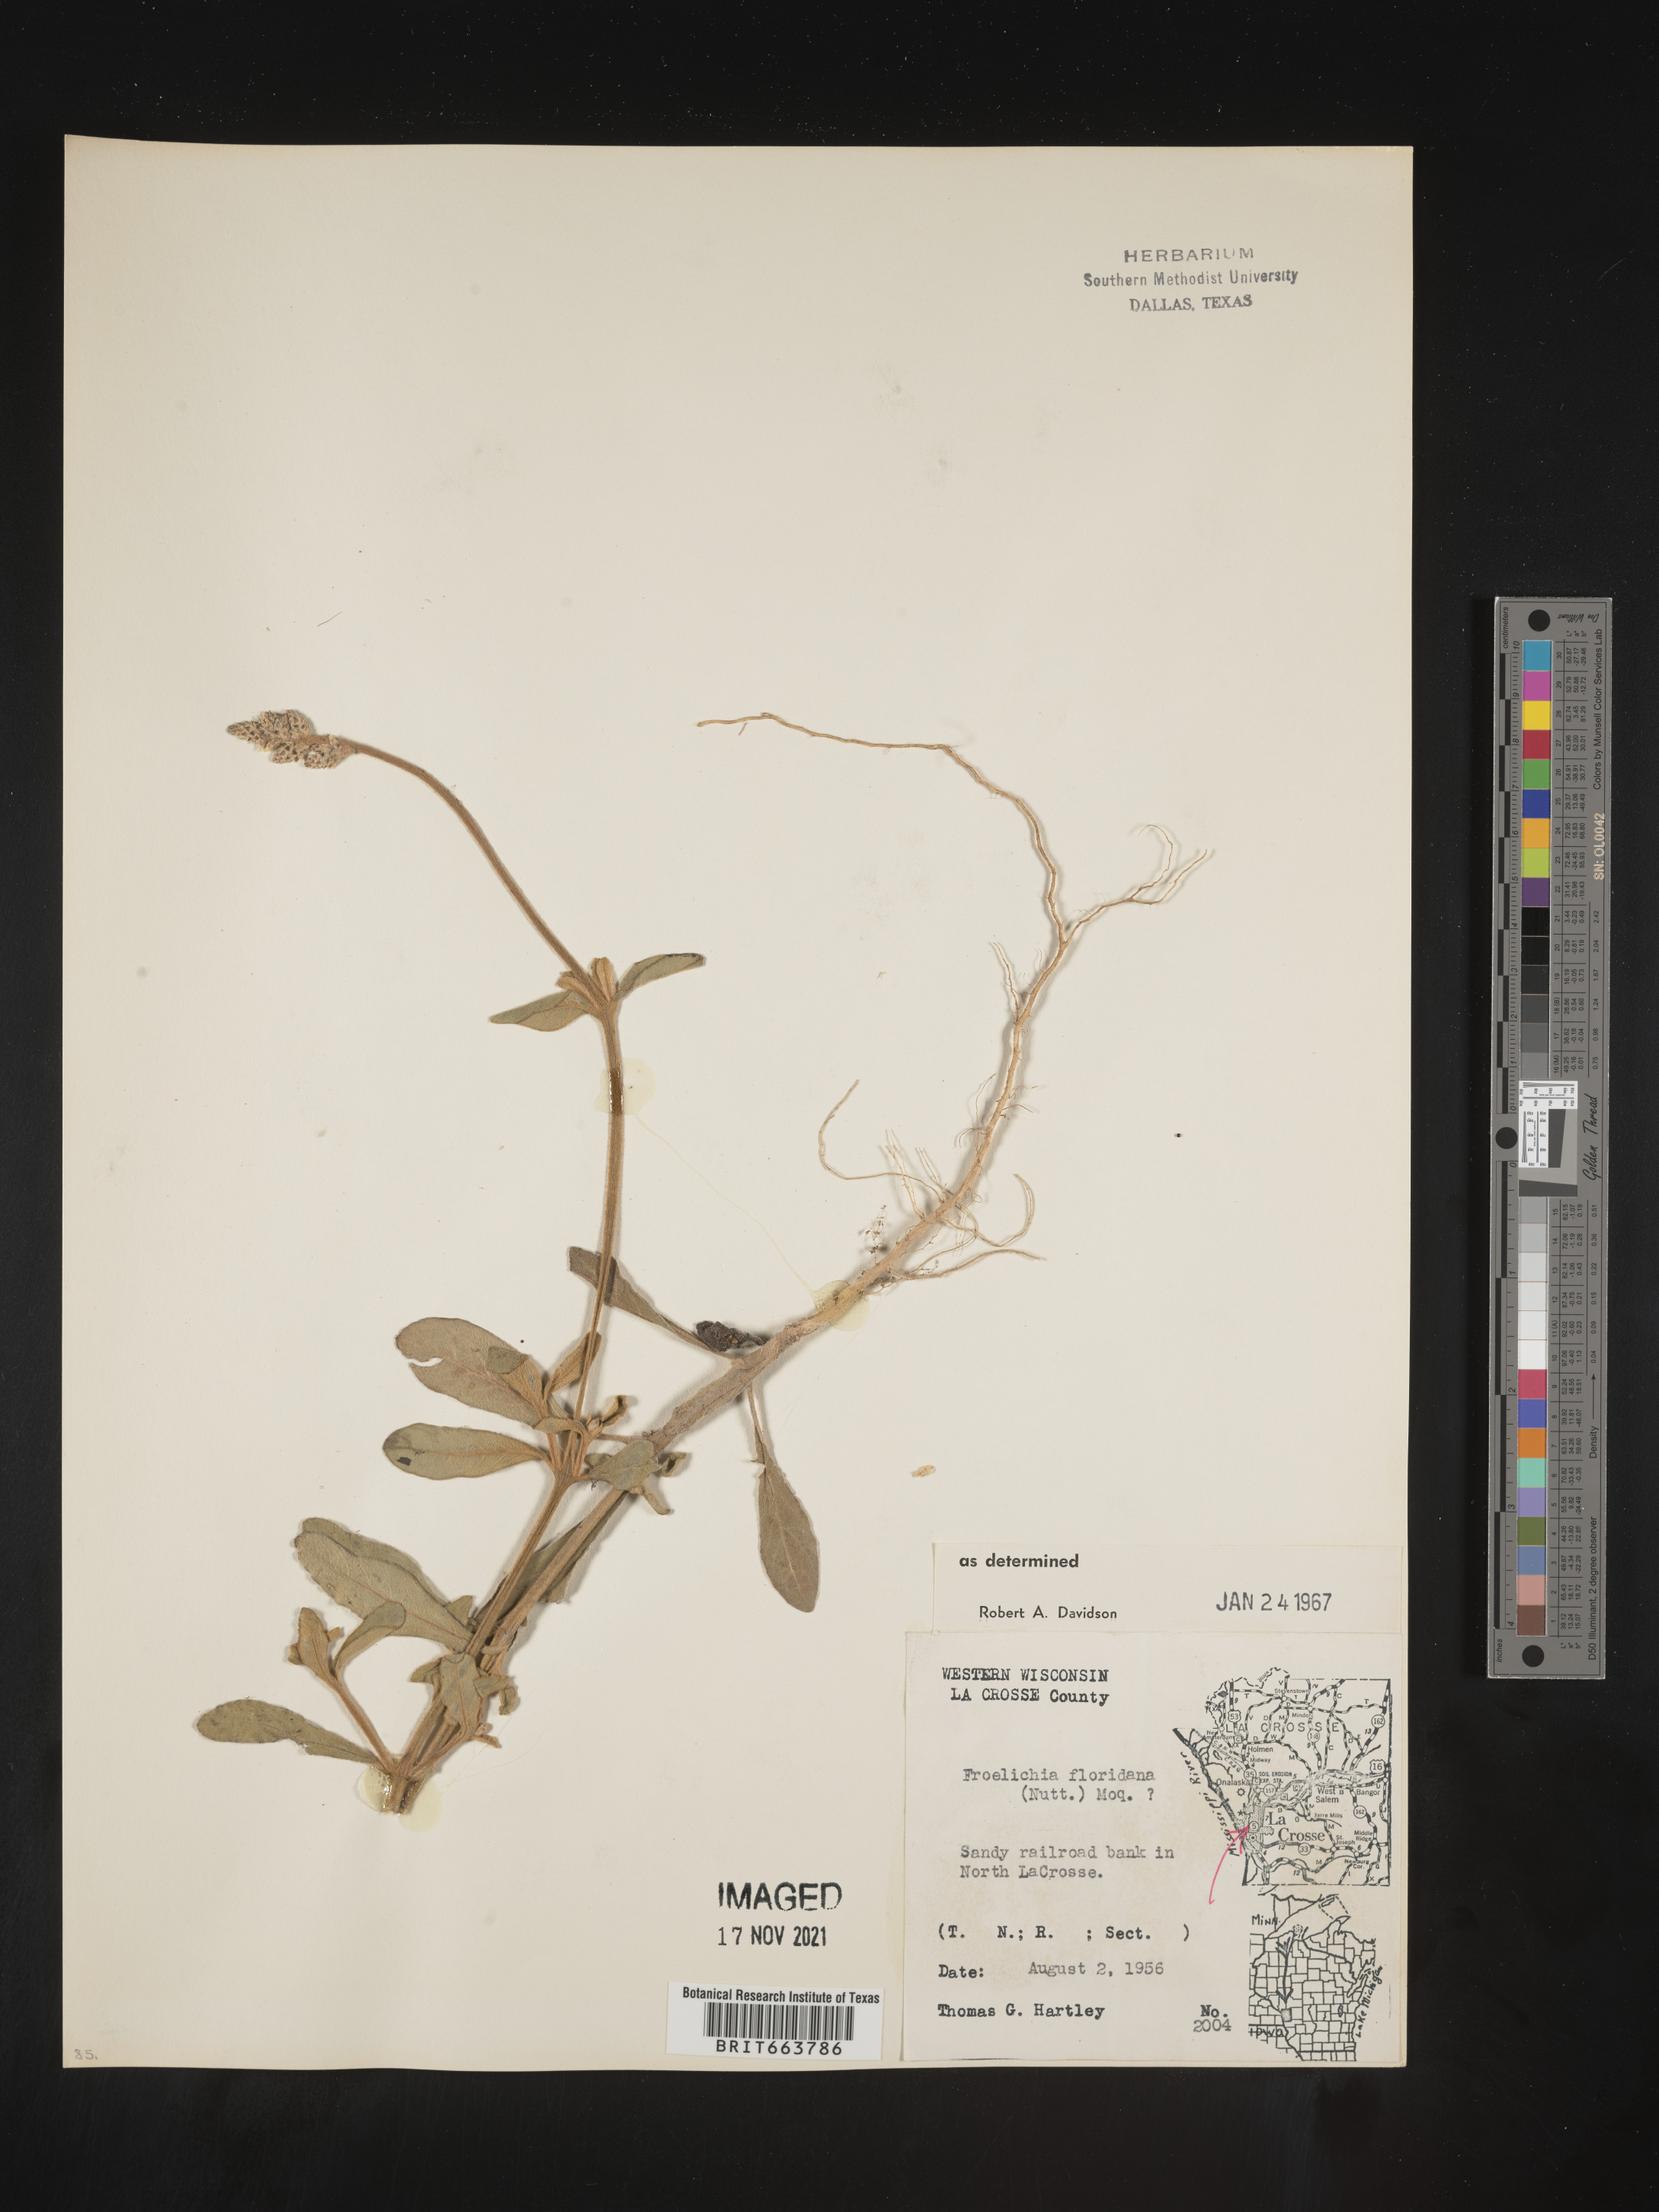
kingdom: Plantae
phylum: Tracheophyta
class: Magnoliopsida
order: Caryophyllales
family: Amaranthaceae
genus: Froelichia
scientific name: Froelichia floridana
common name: Florida snake-cotton
